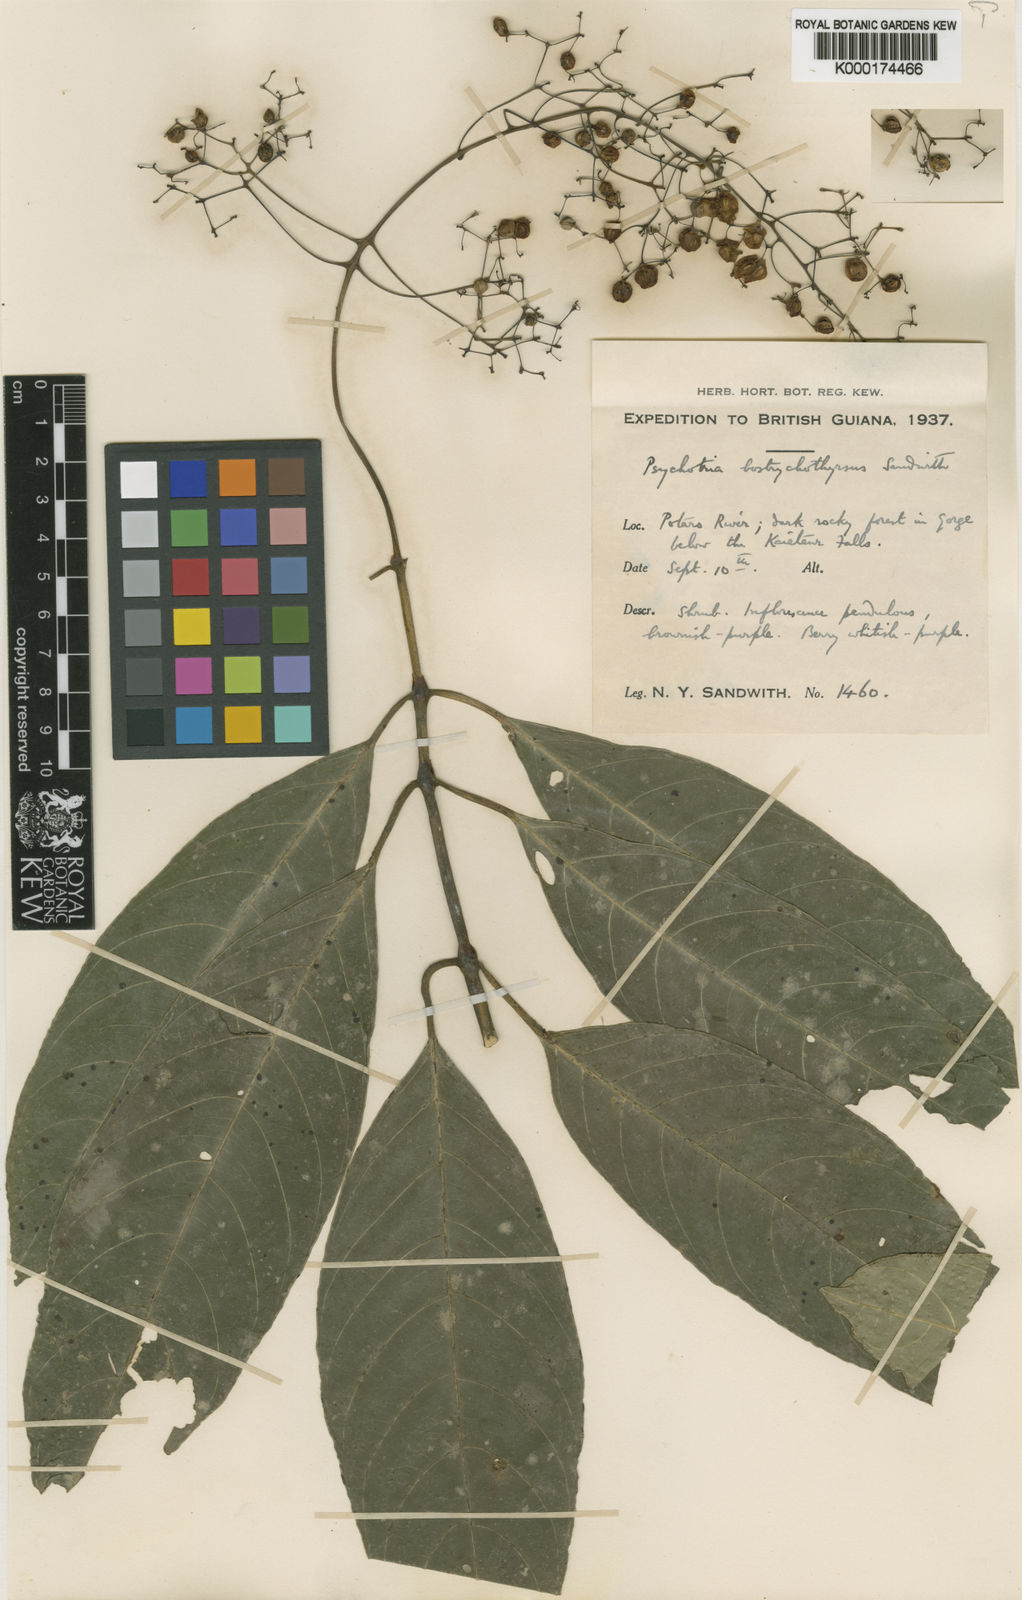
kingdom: Plantae
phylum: Tracheophyta
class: Magnoliopsida
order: Gentianales
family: Rubiaceae
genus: Palicourea
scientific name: Palicourea bostrychothyrsus
